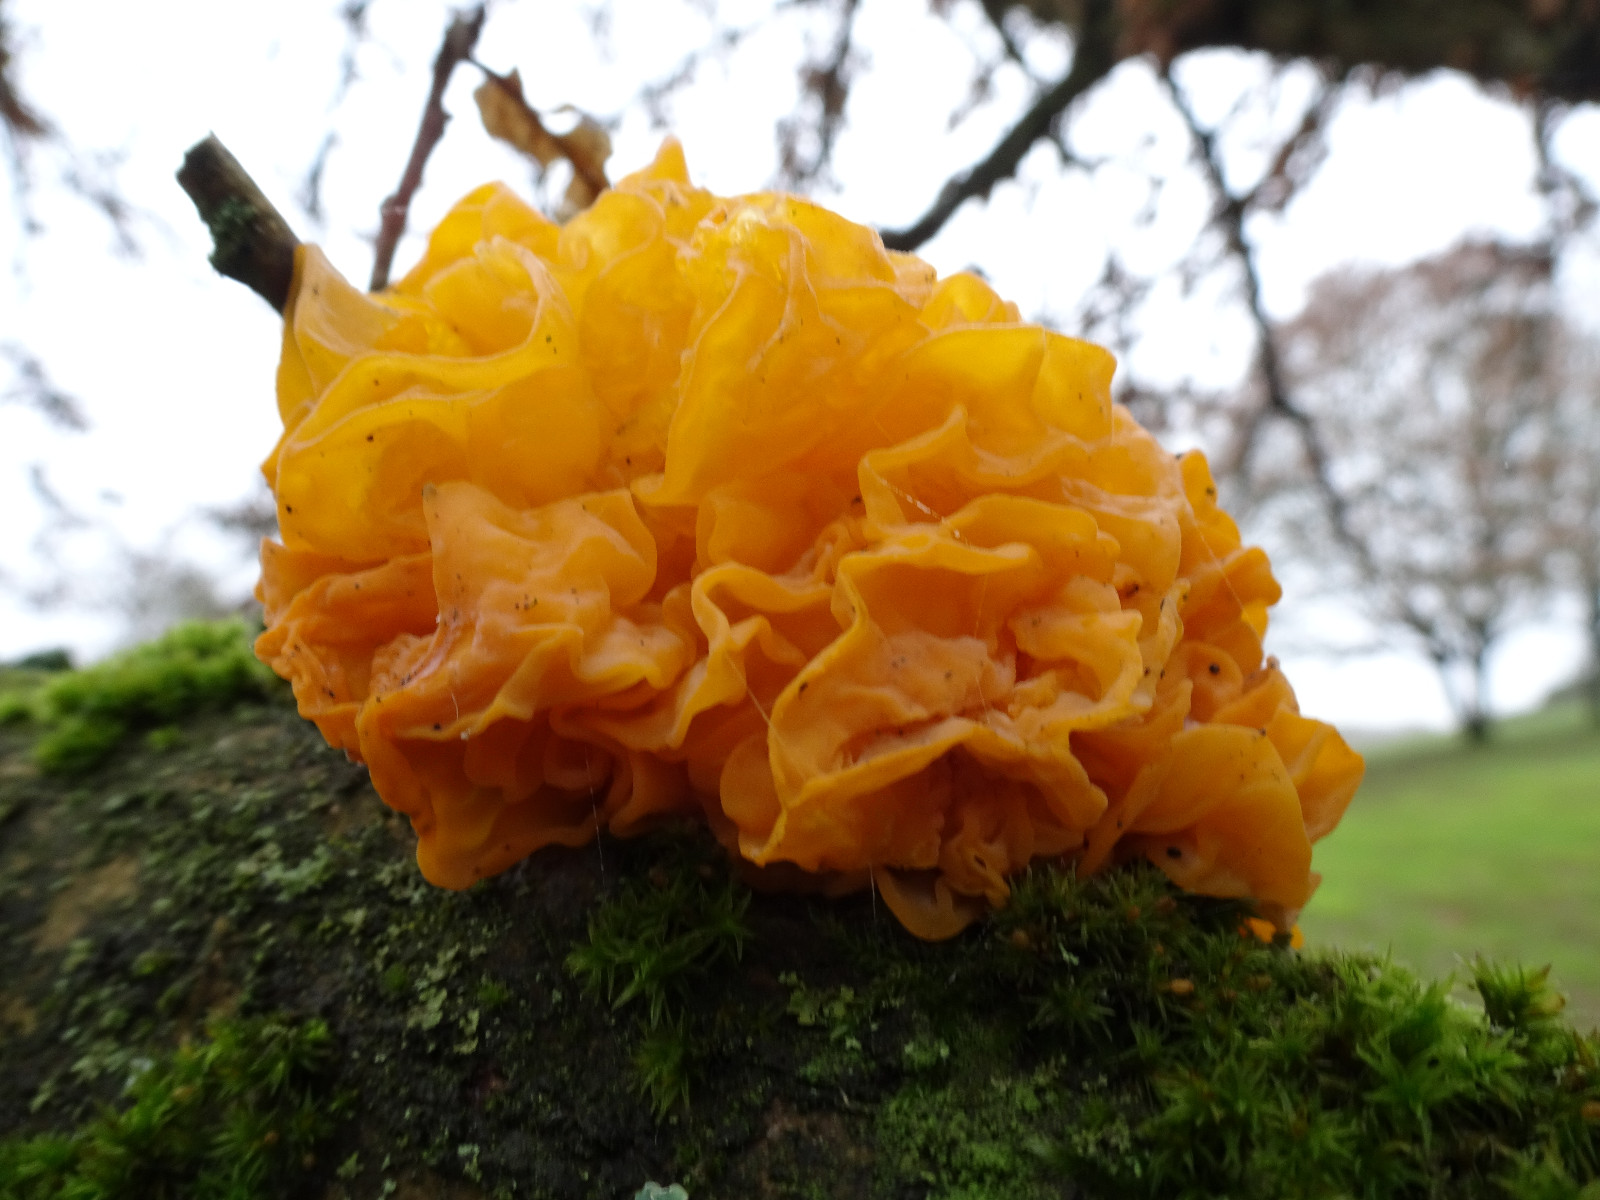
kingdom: Fungi
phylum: Basidiomycota
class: Tremellomycetes
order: Tremellales
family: Tremellaceae
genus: Tremella
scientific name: Tremella mesenterica
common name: gul bævresvamp
